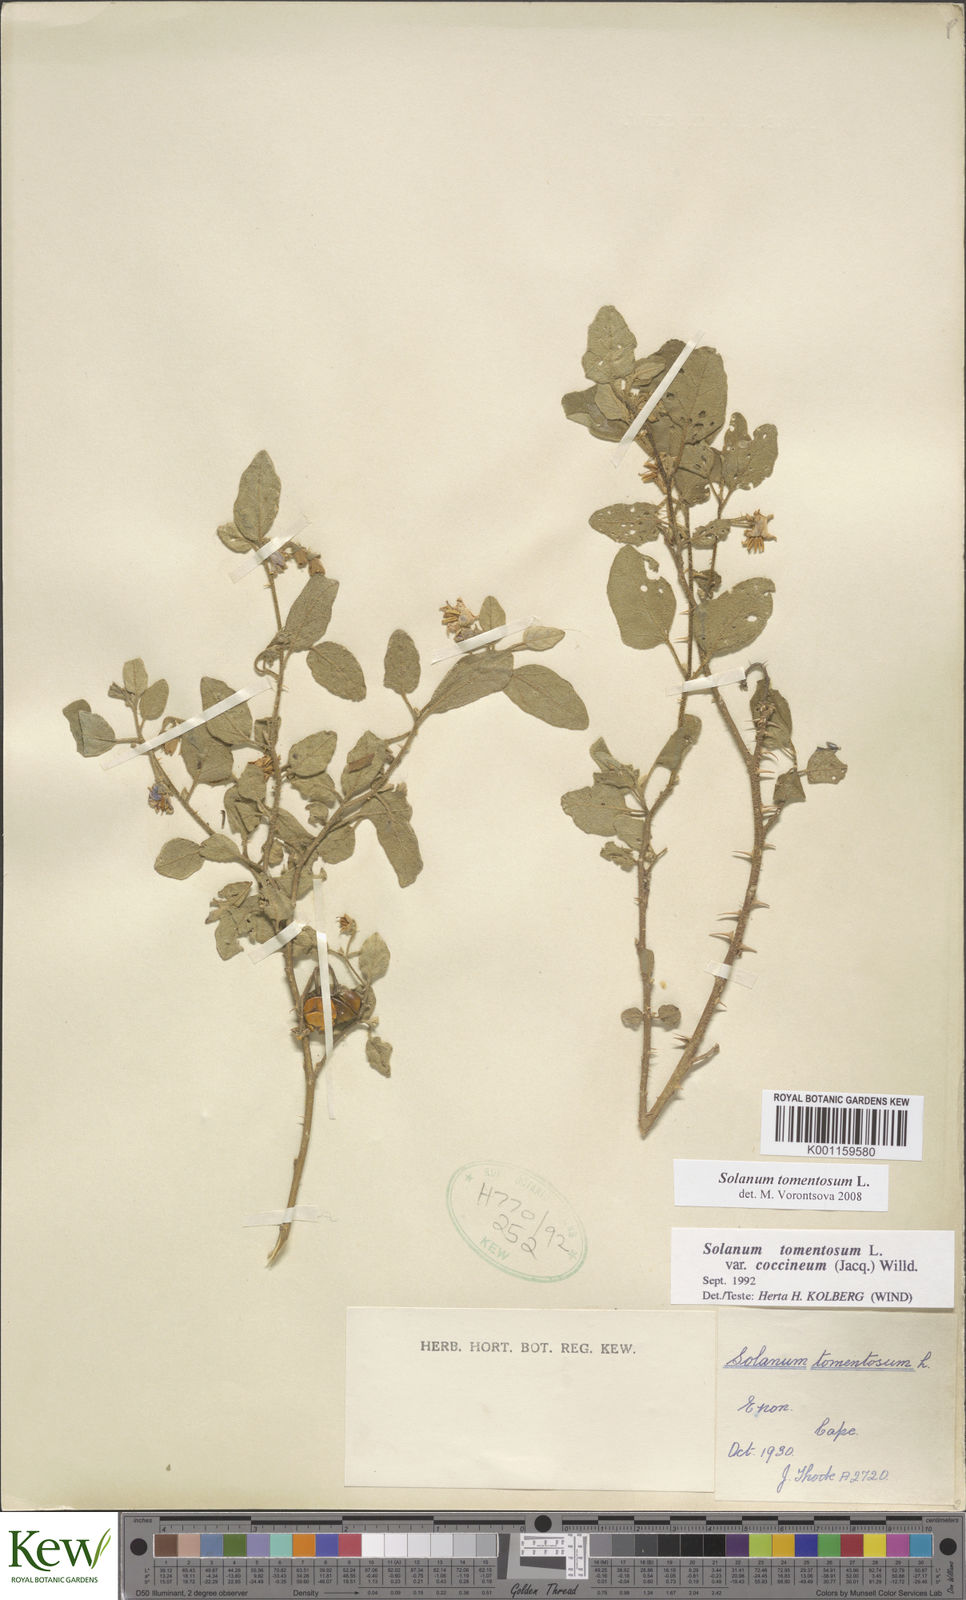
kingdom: Plantae
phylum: Tracheophyta
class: Magnoliopsida
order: Solanales
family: Solanaceae
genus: Solanum
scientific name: Solanum tomentosum
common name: Wild aubergine
